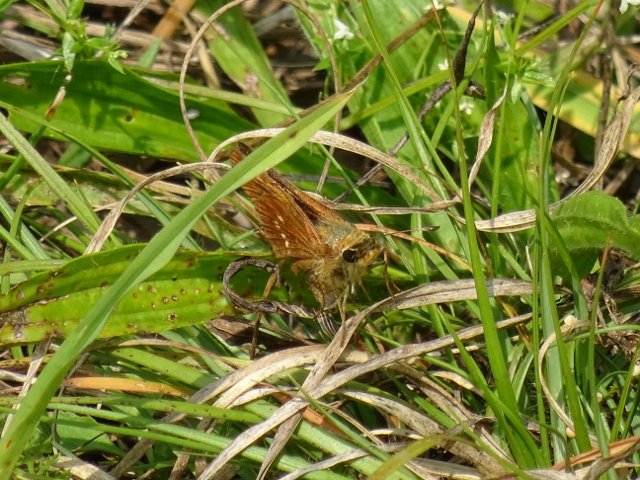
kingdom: Animalia
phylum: Arthropoda
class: Insecta
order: Lepidoptera
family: Hesperiidae
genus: Hesperia
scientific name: Hesperia leonardus
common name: Leonard's Skipper
